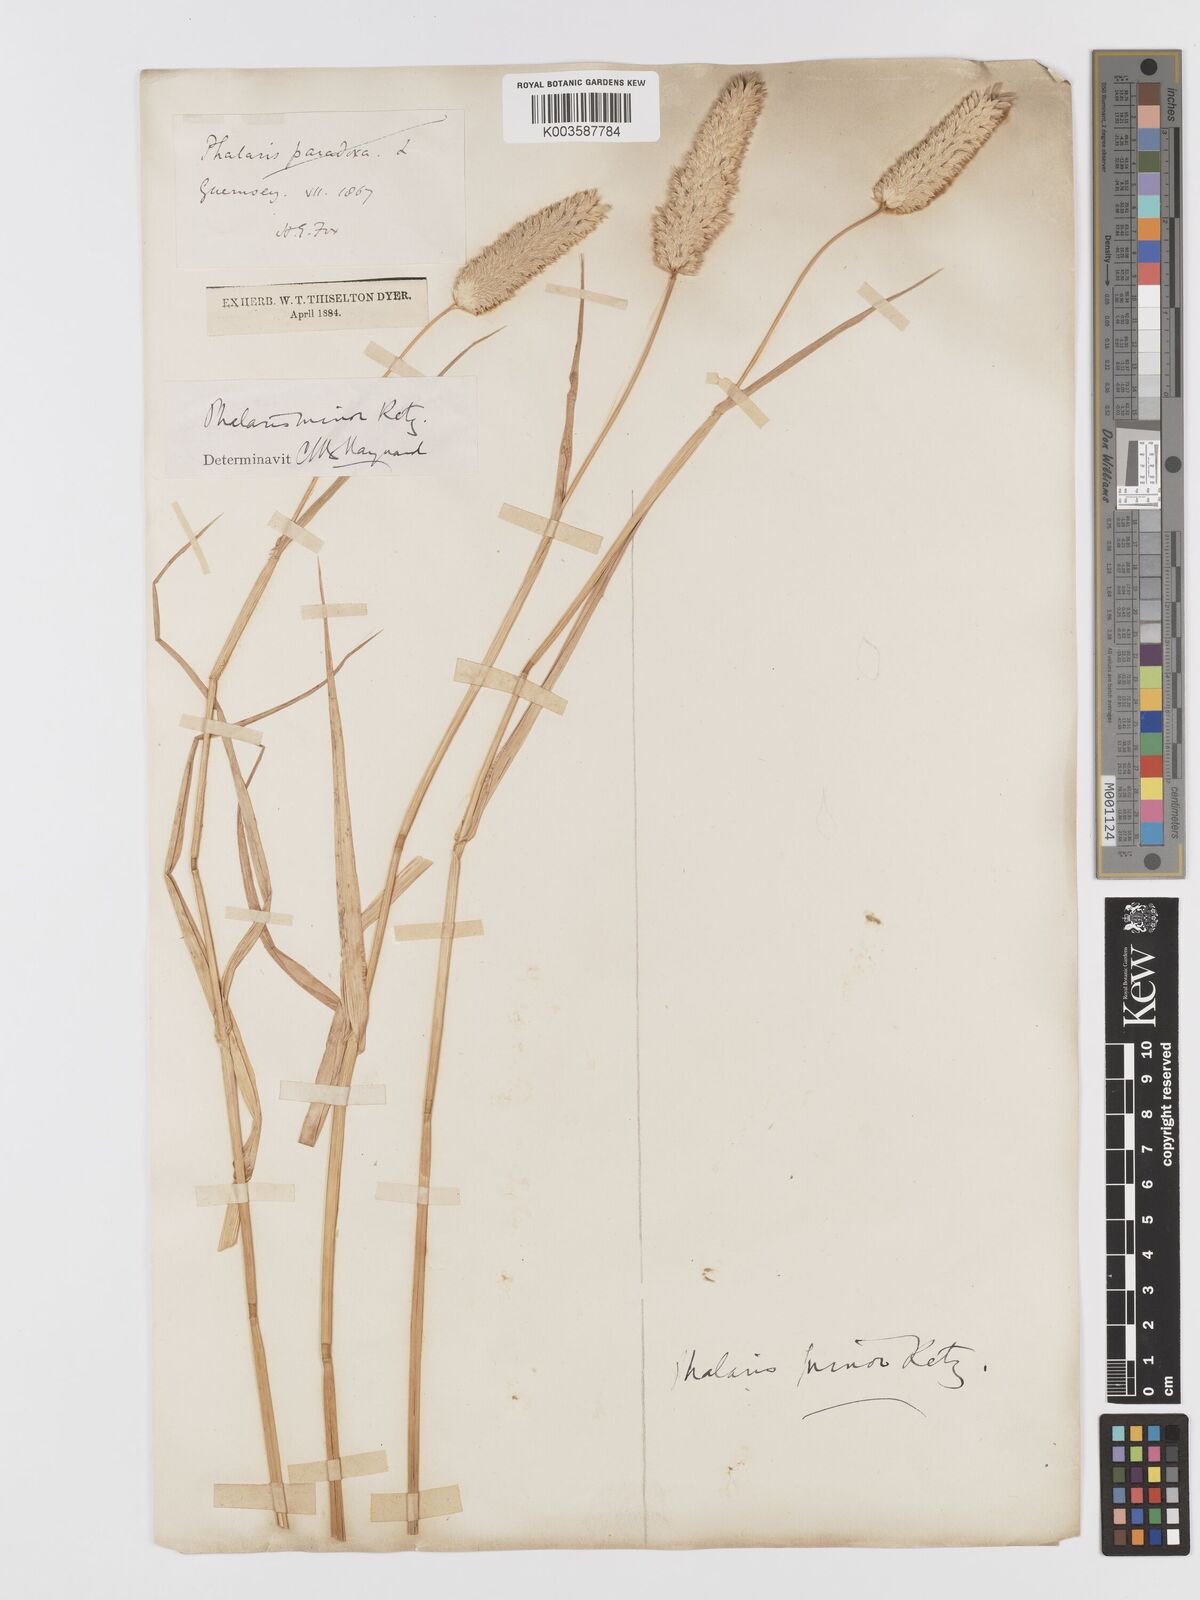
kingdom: Plantae
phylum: Tracheophyta
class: Liliopsida
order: Poales
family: Poaceae
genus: Phalaris
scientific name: Phalaris minor
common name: Littleseed canarygrass
